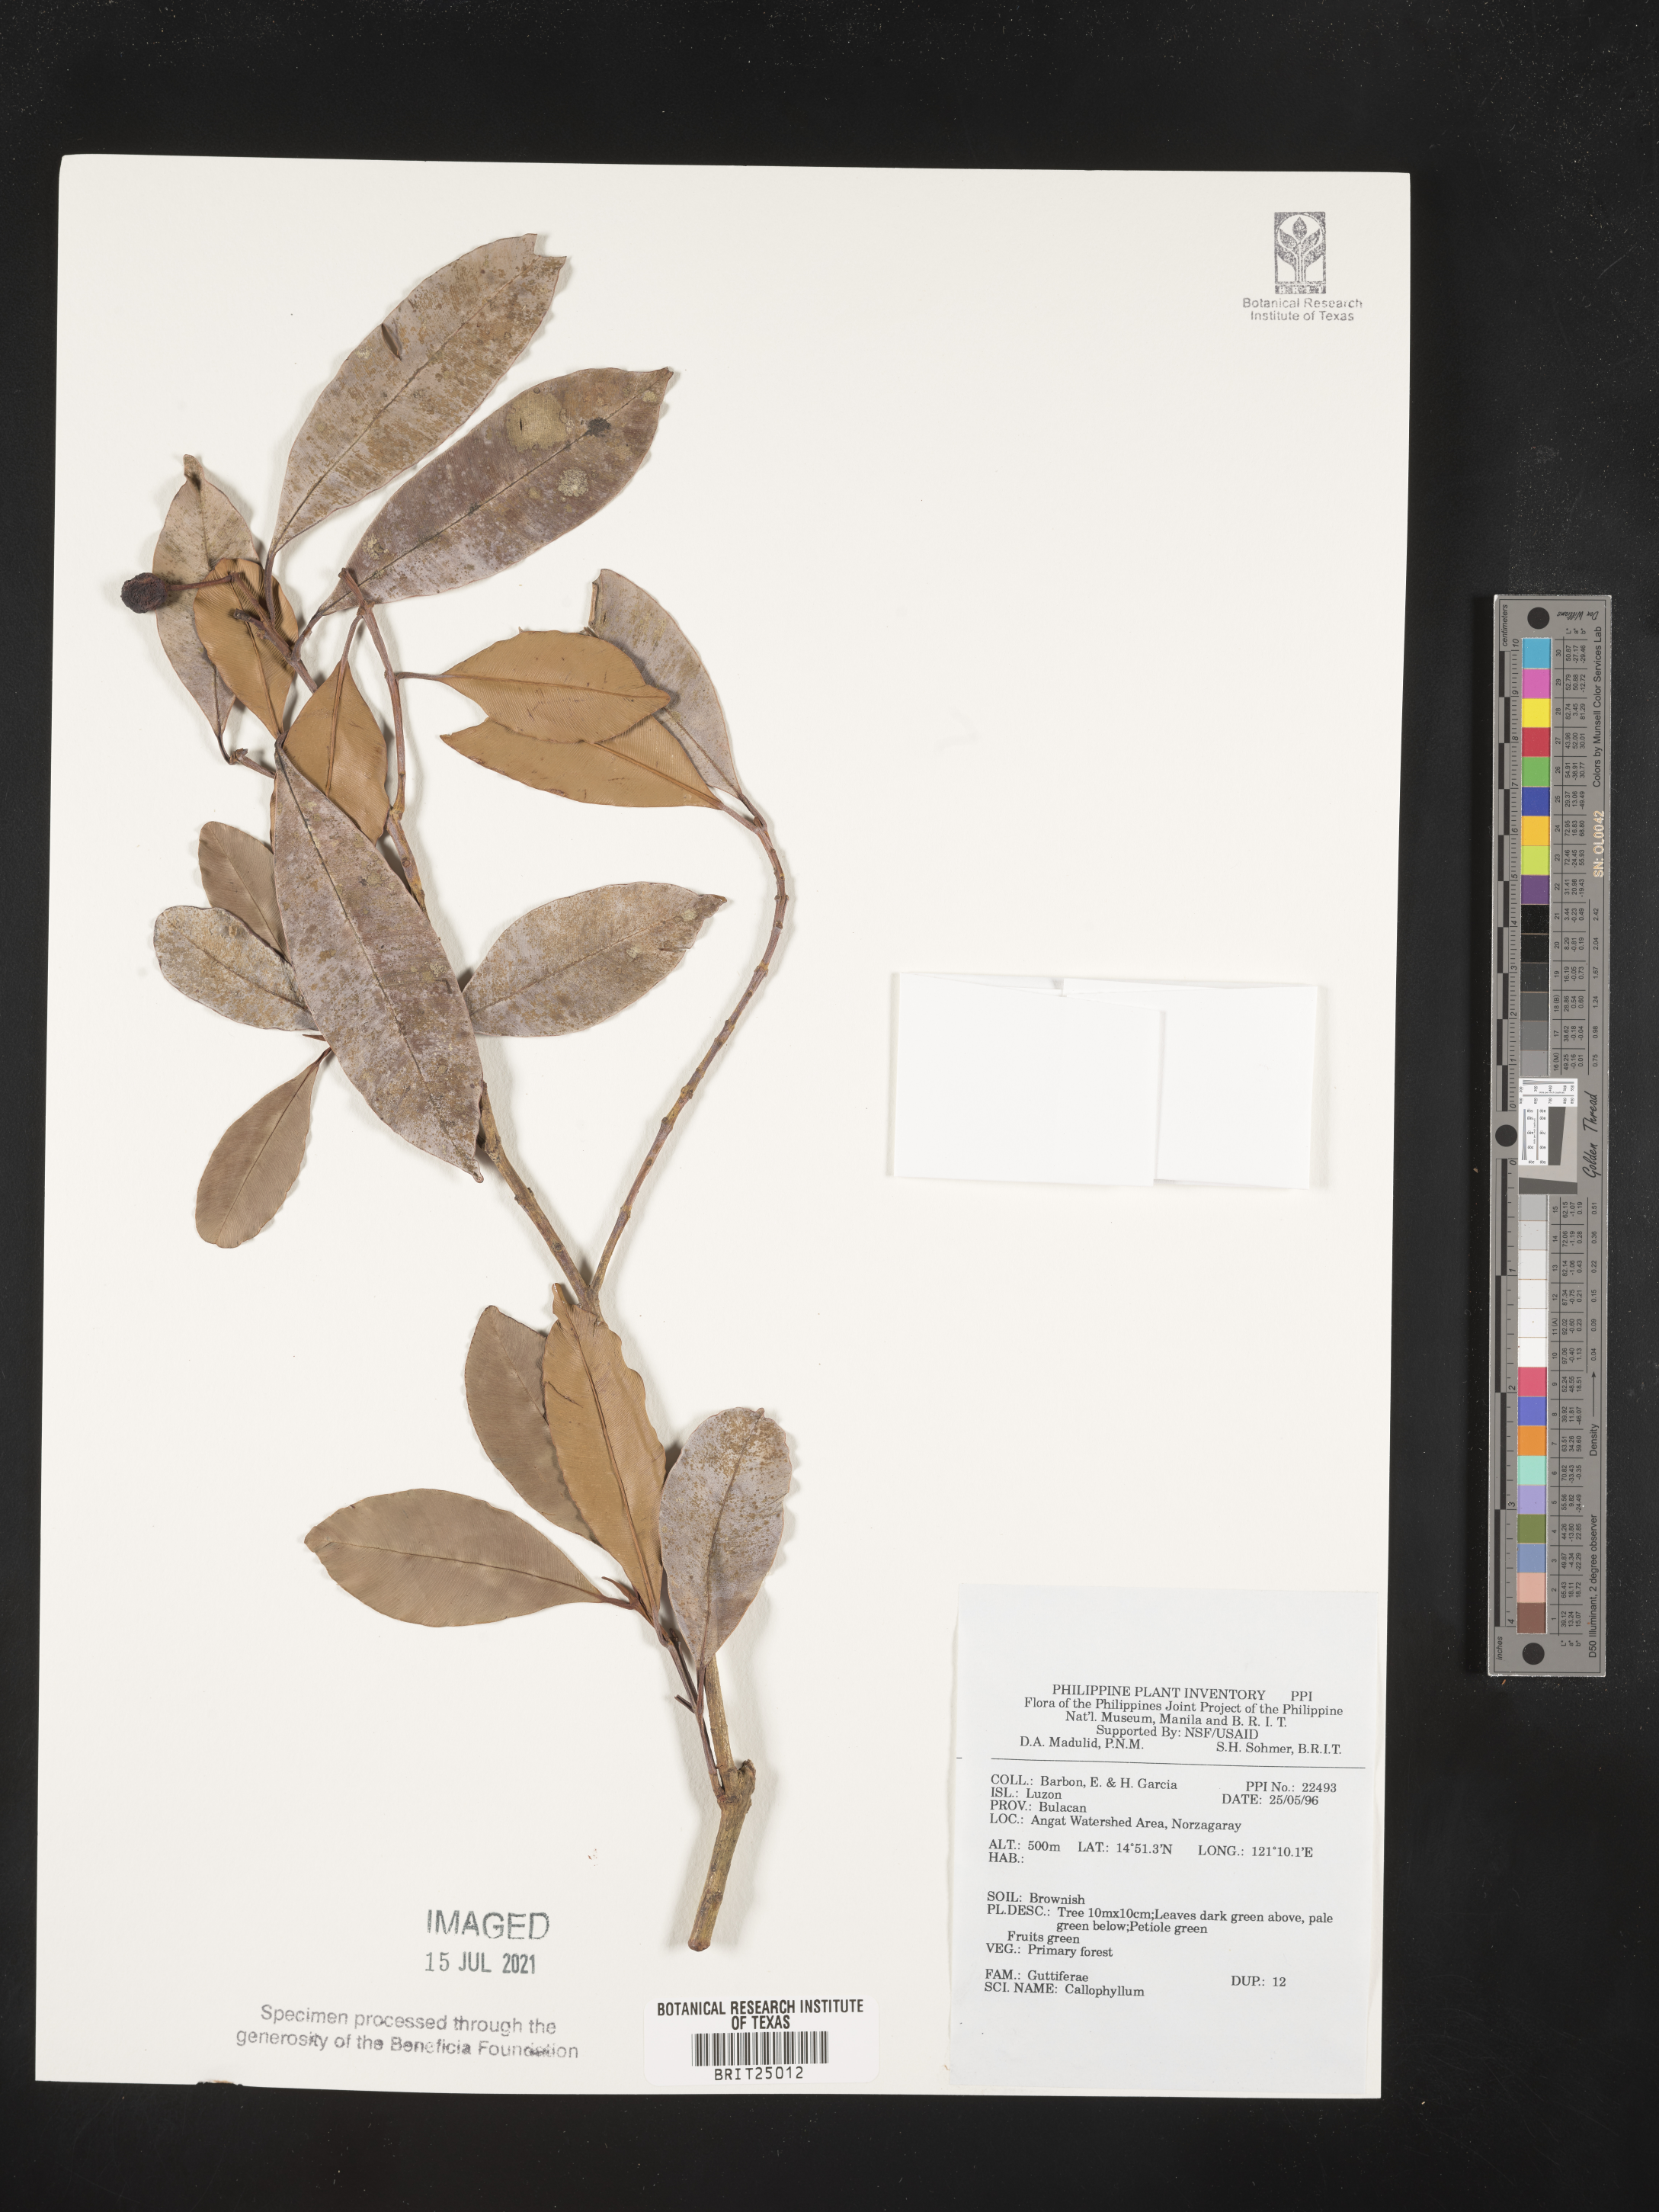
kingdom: Plantae
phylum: Tracheophyta
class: Magnoliopsida
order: Malpighiales
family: Calophyllaceae
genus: Calophyllum
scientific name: Calophyllum
